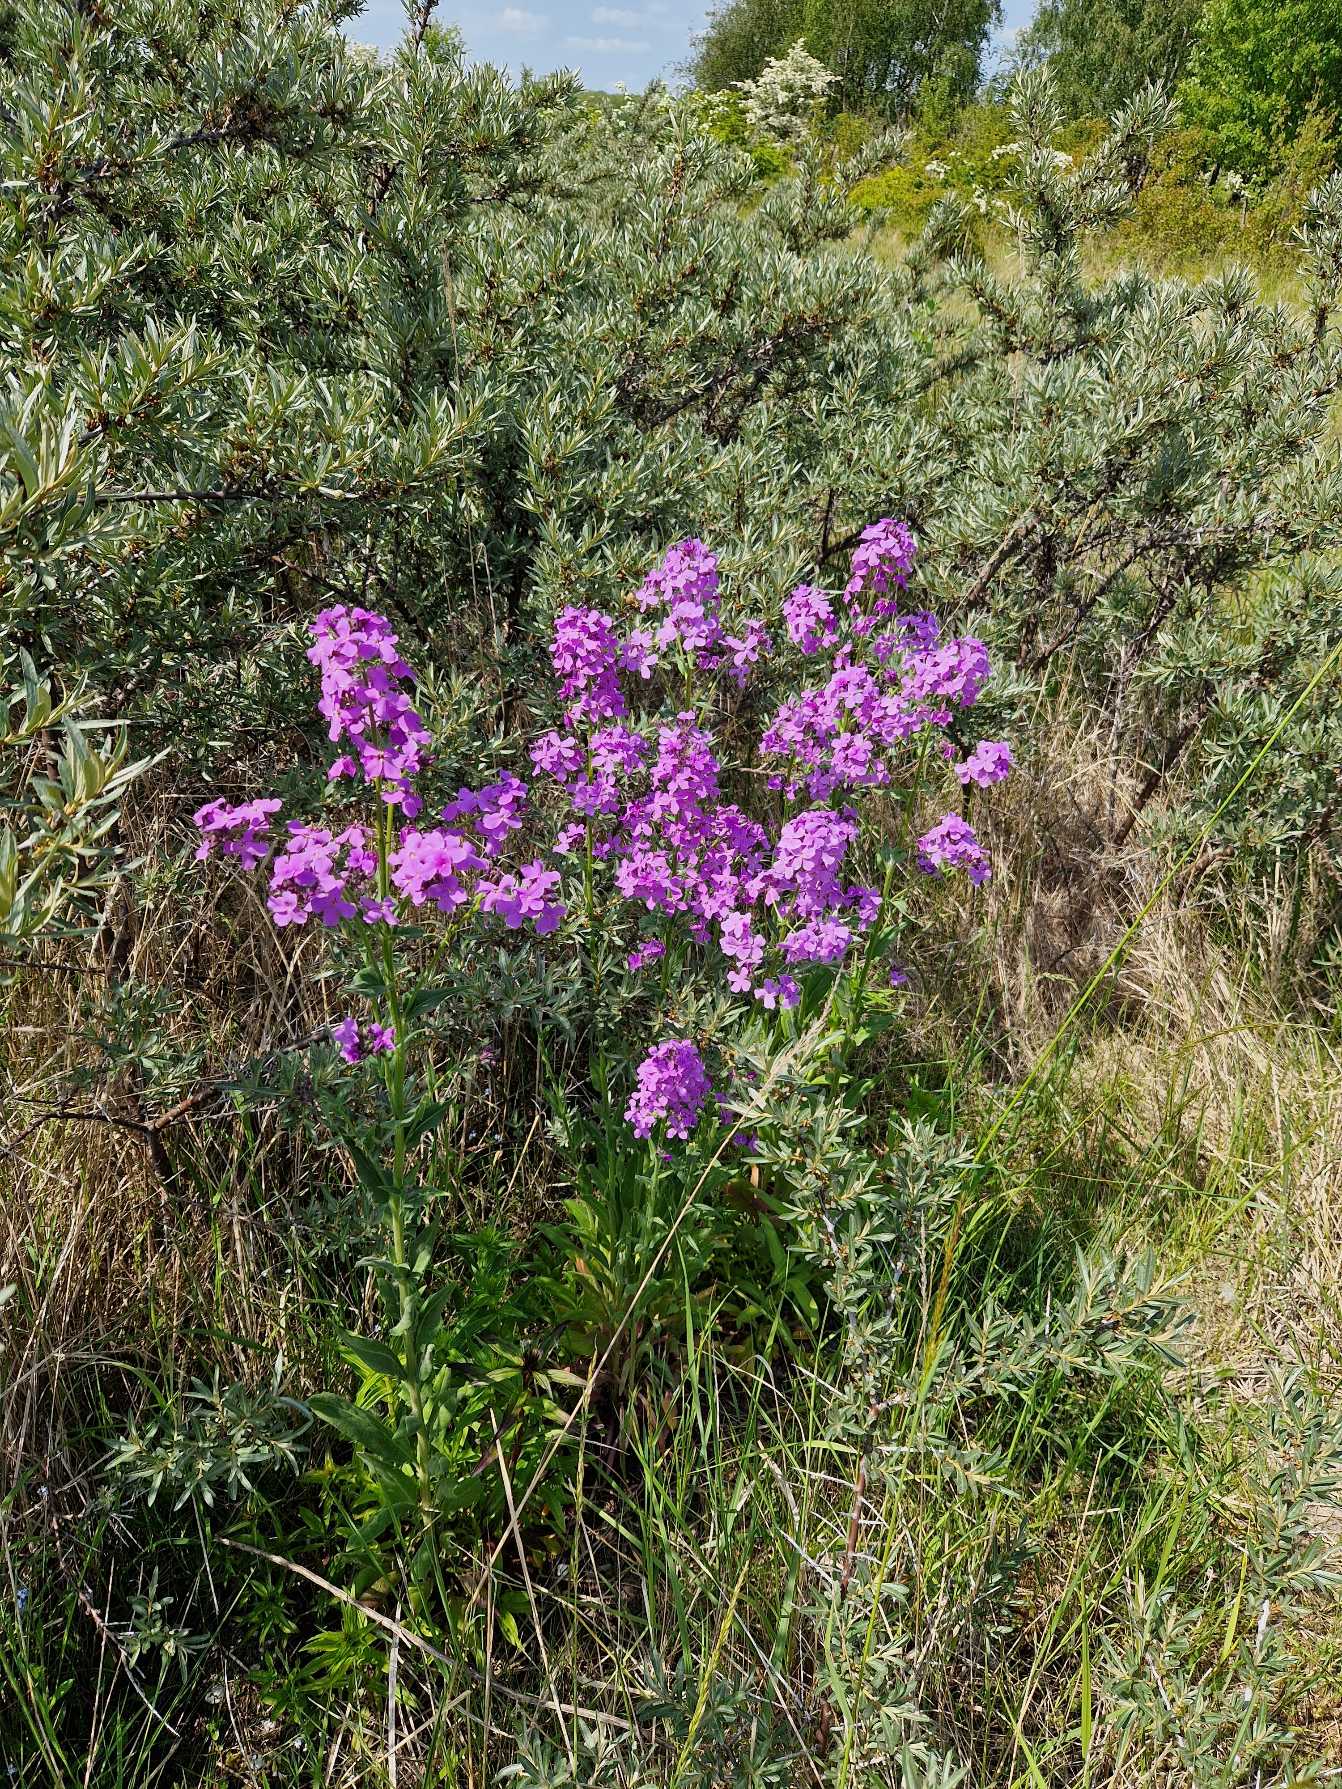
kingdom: Plantae
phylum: Tracheophyta
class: Magnoliopsida
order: Brassicales
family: Brassicaceae
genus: Hesperis
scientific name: Hesperis matronalis
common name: Aftenstjerne
